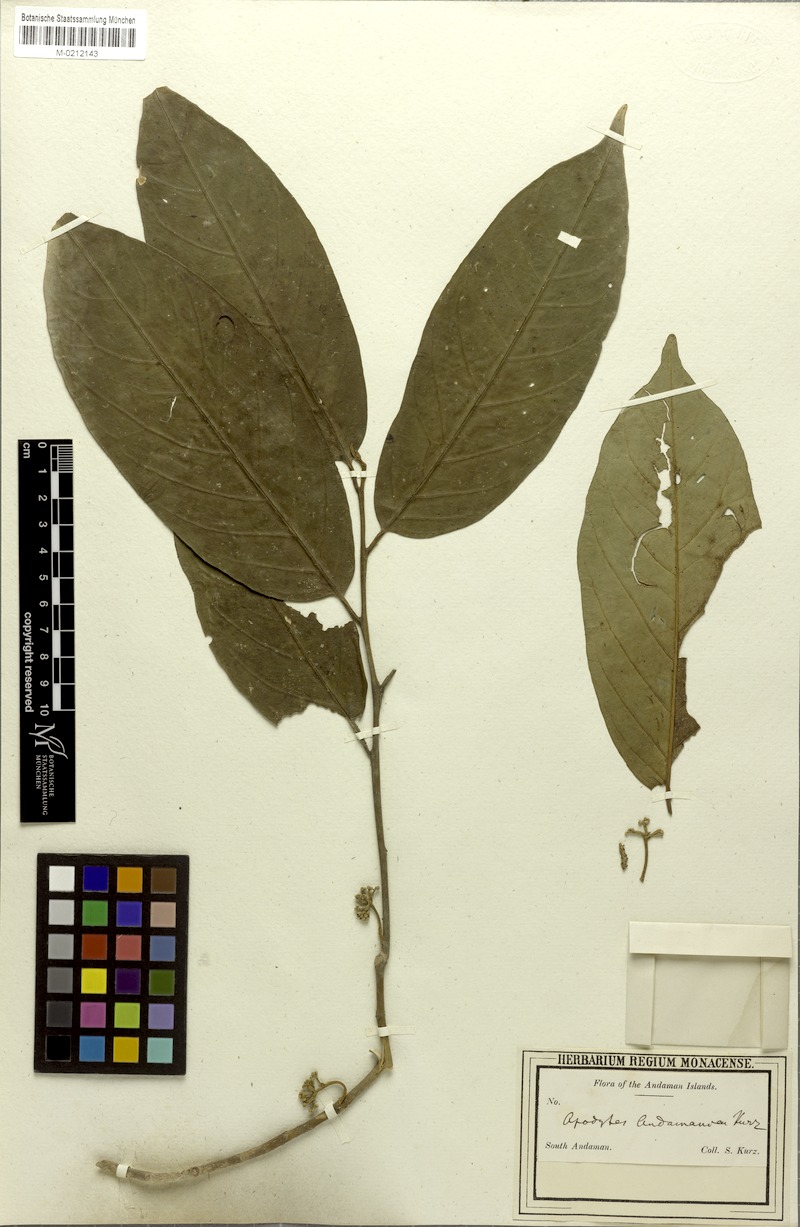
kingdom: Plantae
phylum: Tracheophyta
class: Magnoliopsida
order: Cardiopteridales
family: Stemonuraceae
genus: Codiocarpus
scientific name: Codiocarpus andamanicus
